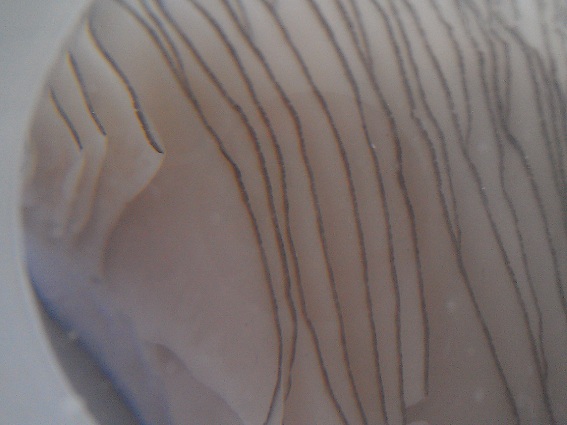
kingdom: Fungi
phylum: Basidiomycota
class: Agaricomycetes
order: Agaricales
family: Pluteaceae
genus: Pluteus
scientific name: Pluteus atromarginatus
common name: sortrandet skærmhat
